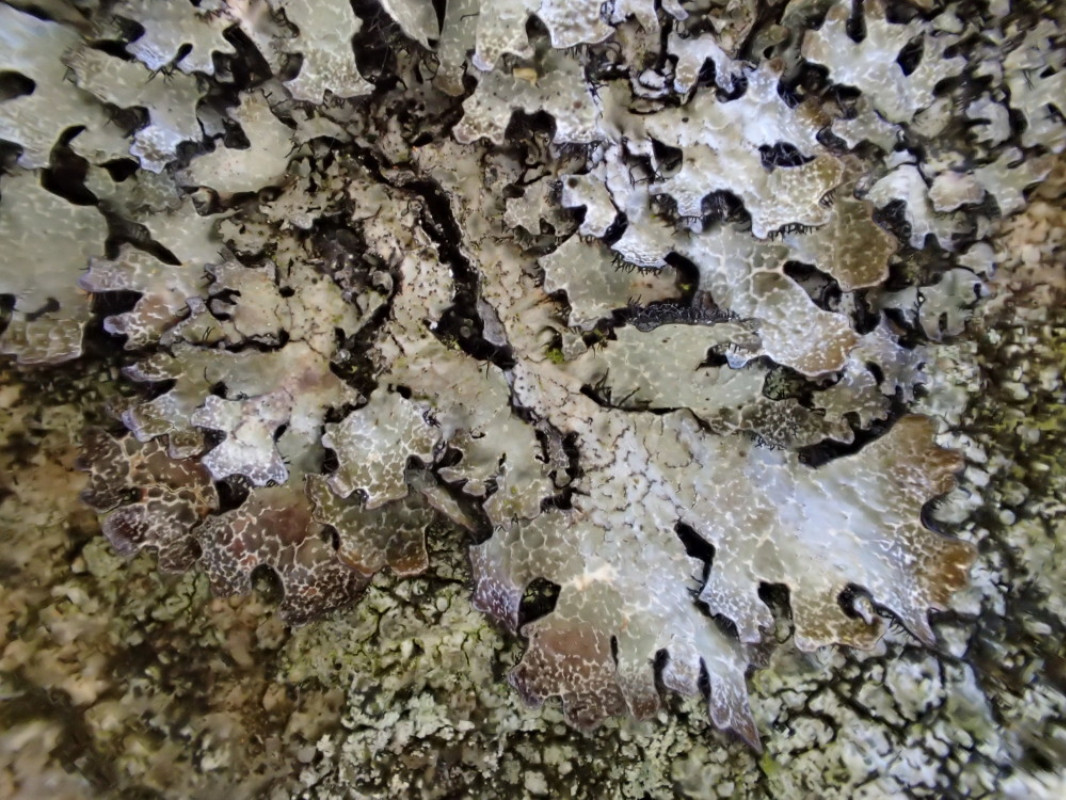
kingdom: Fungi
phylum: Ascomycota
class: Lecanoromycetes
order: Lecanorales
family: Parmeliaceae
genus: Parmelia
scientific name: Parmelia saxatilis
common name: farve-skållav
